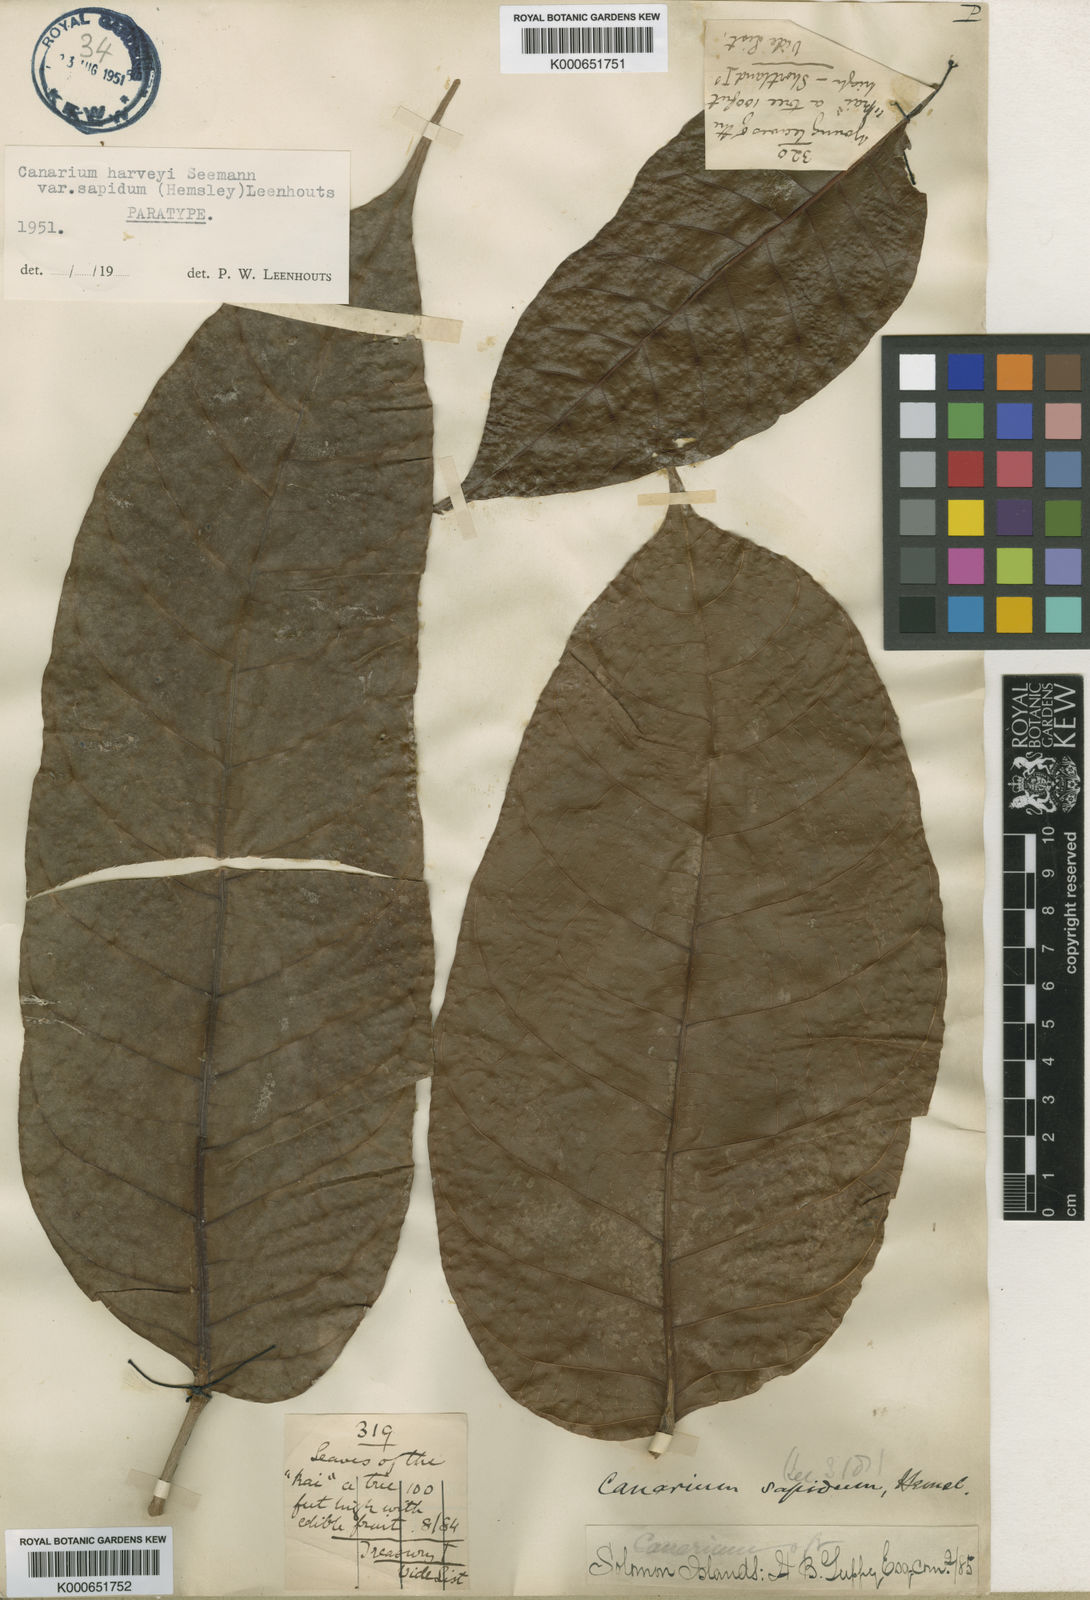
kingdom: Plantae
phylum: Tracheophyta
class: Magnoliopsida
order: Sapindales
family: Burseraceae
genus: Canarium
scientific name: Canarium harveyi
